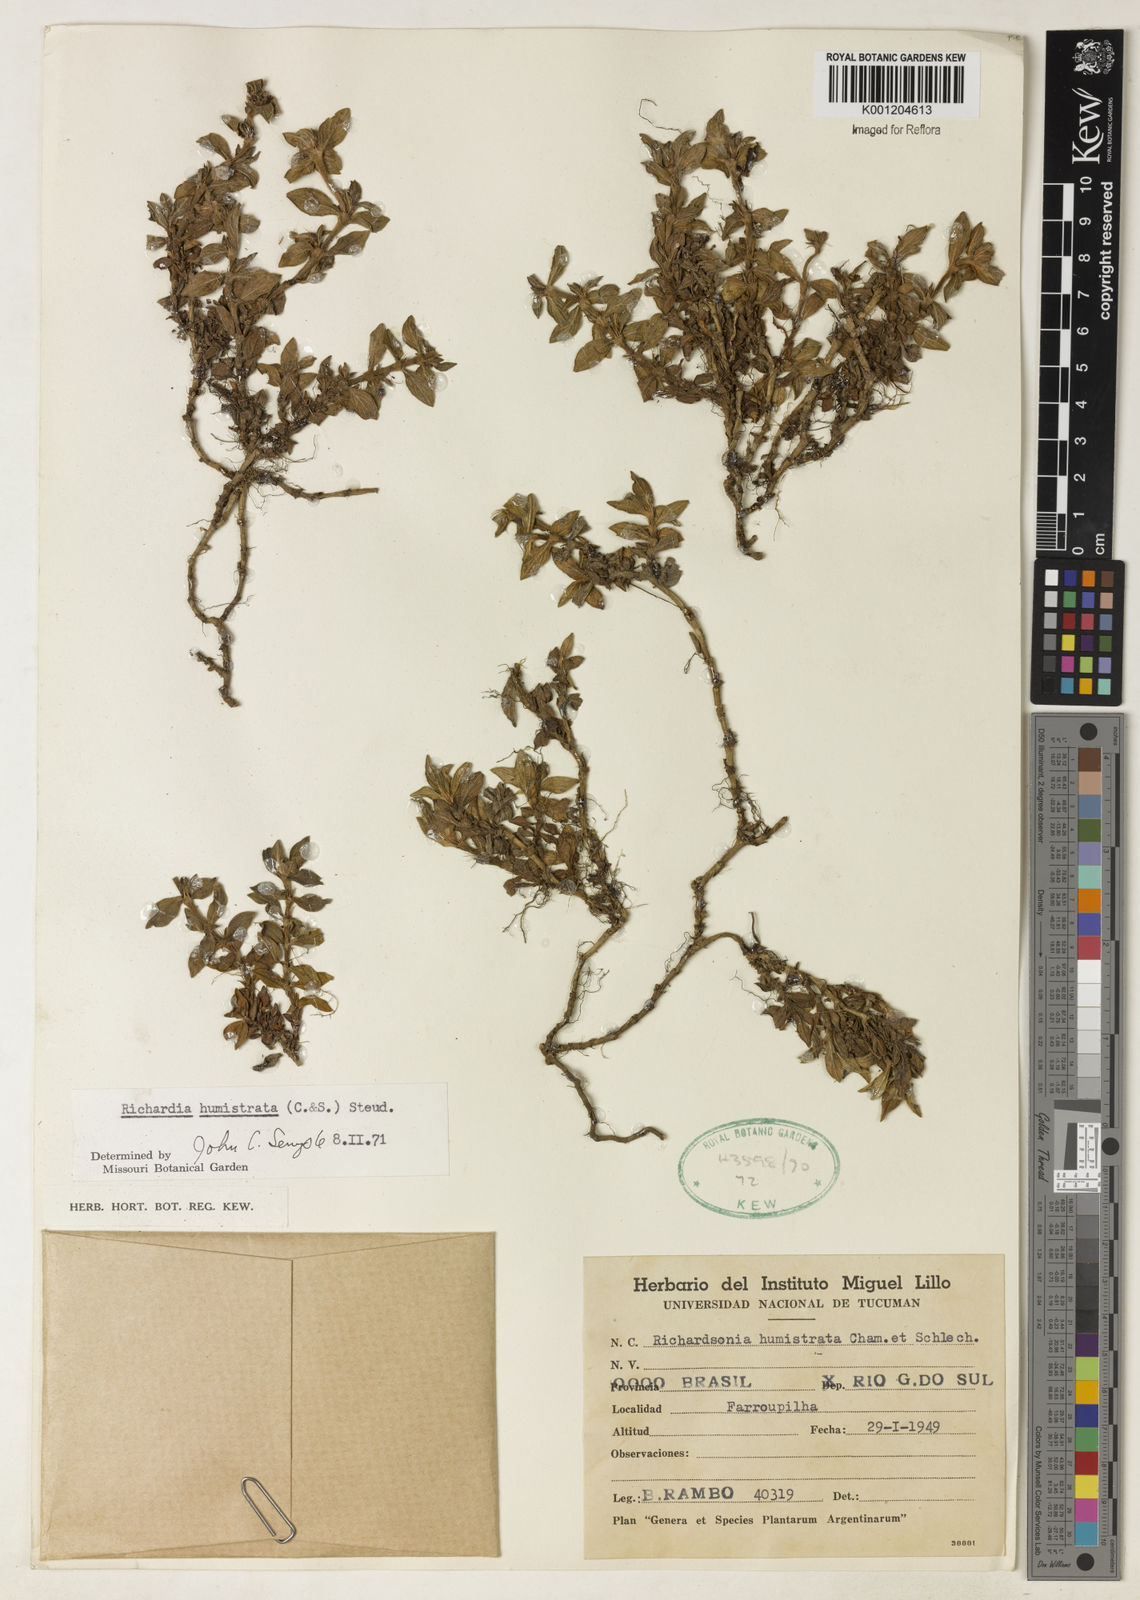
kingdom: Plantae
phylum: Tracheophyta
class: Magnoliopsida
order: Gentianales
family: Rubiaceae
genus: Richardia
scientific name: Richardia humistrata
